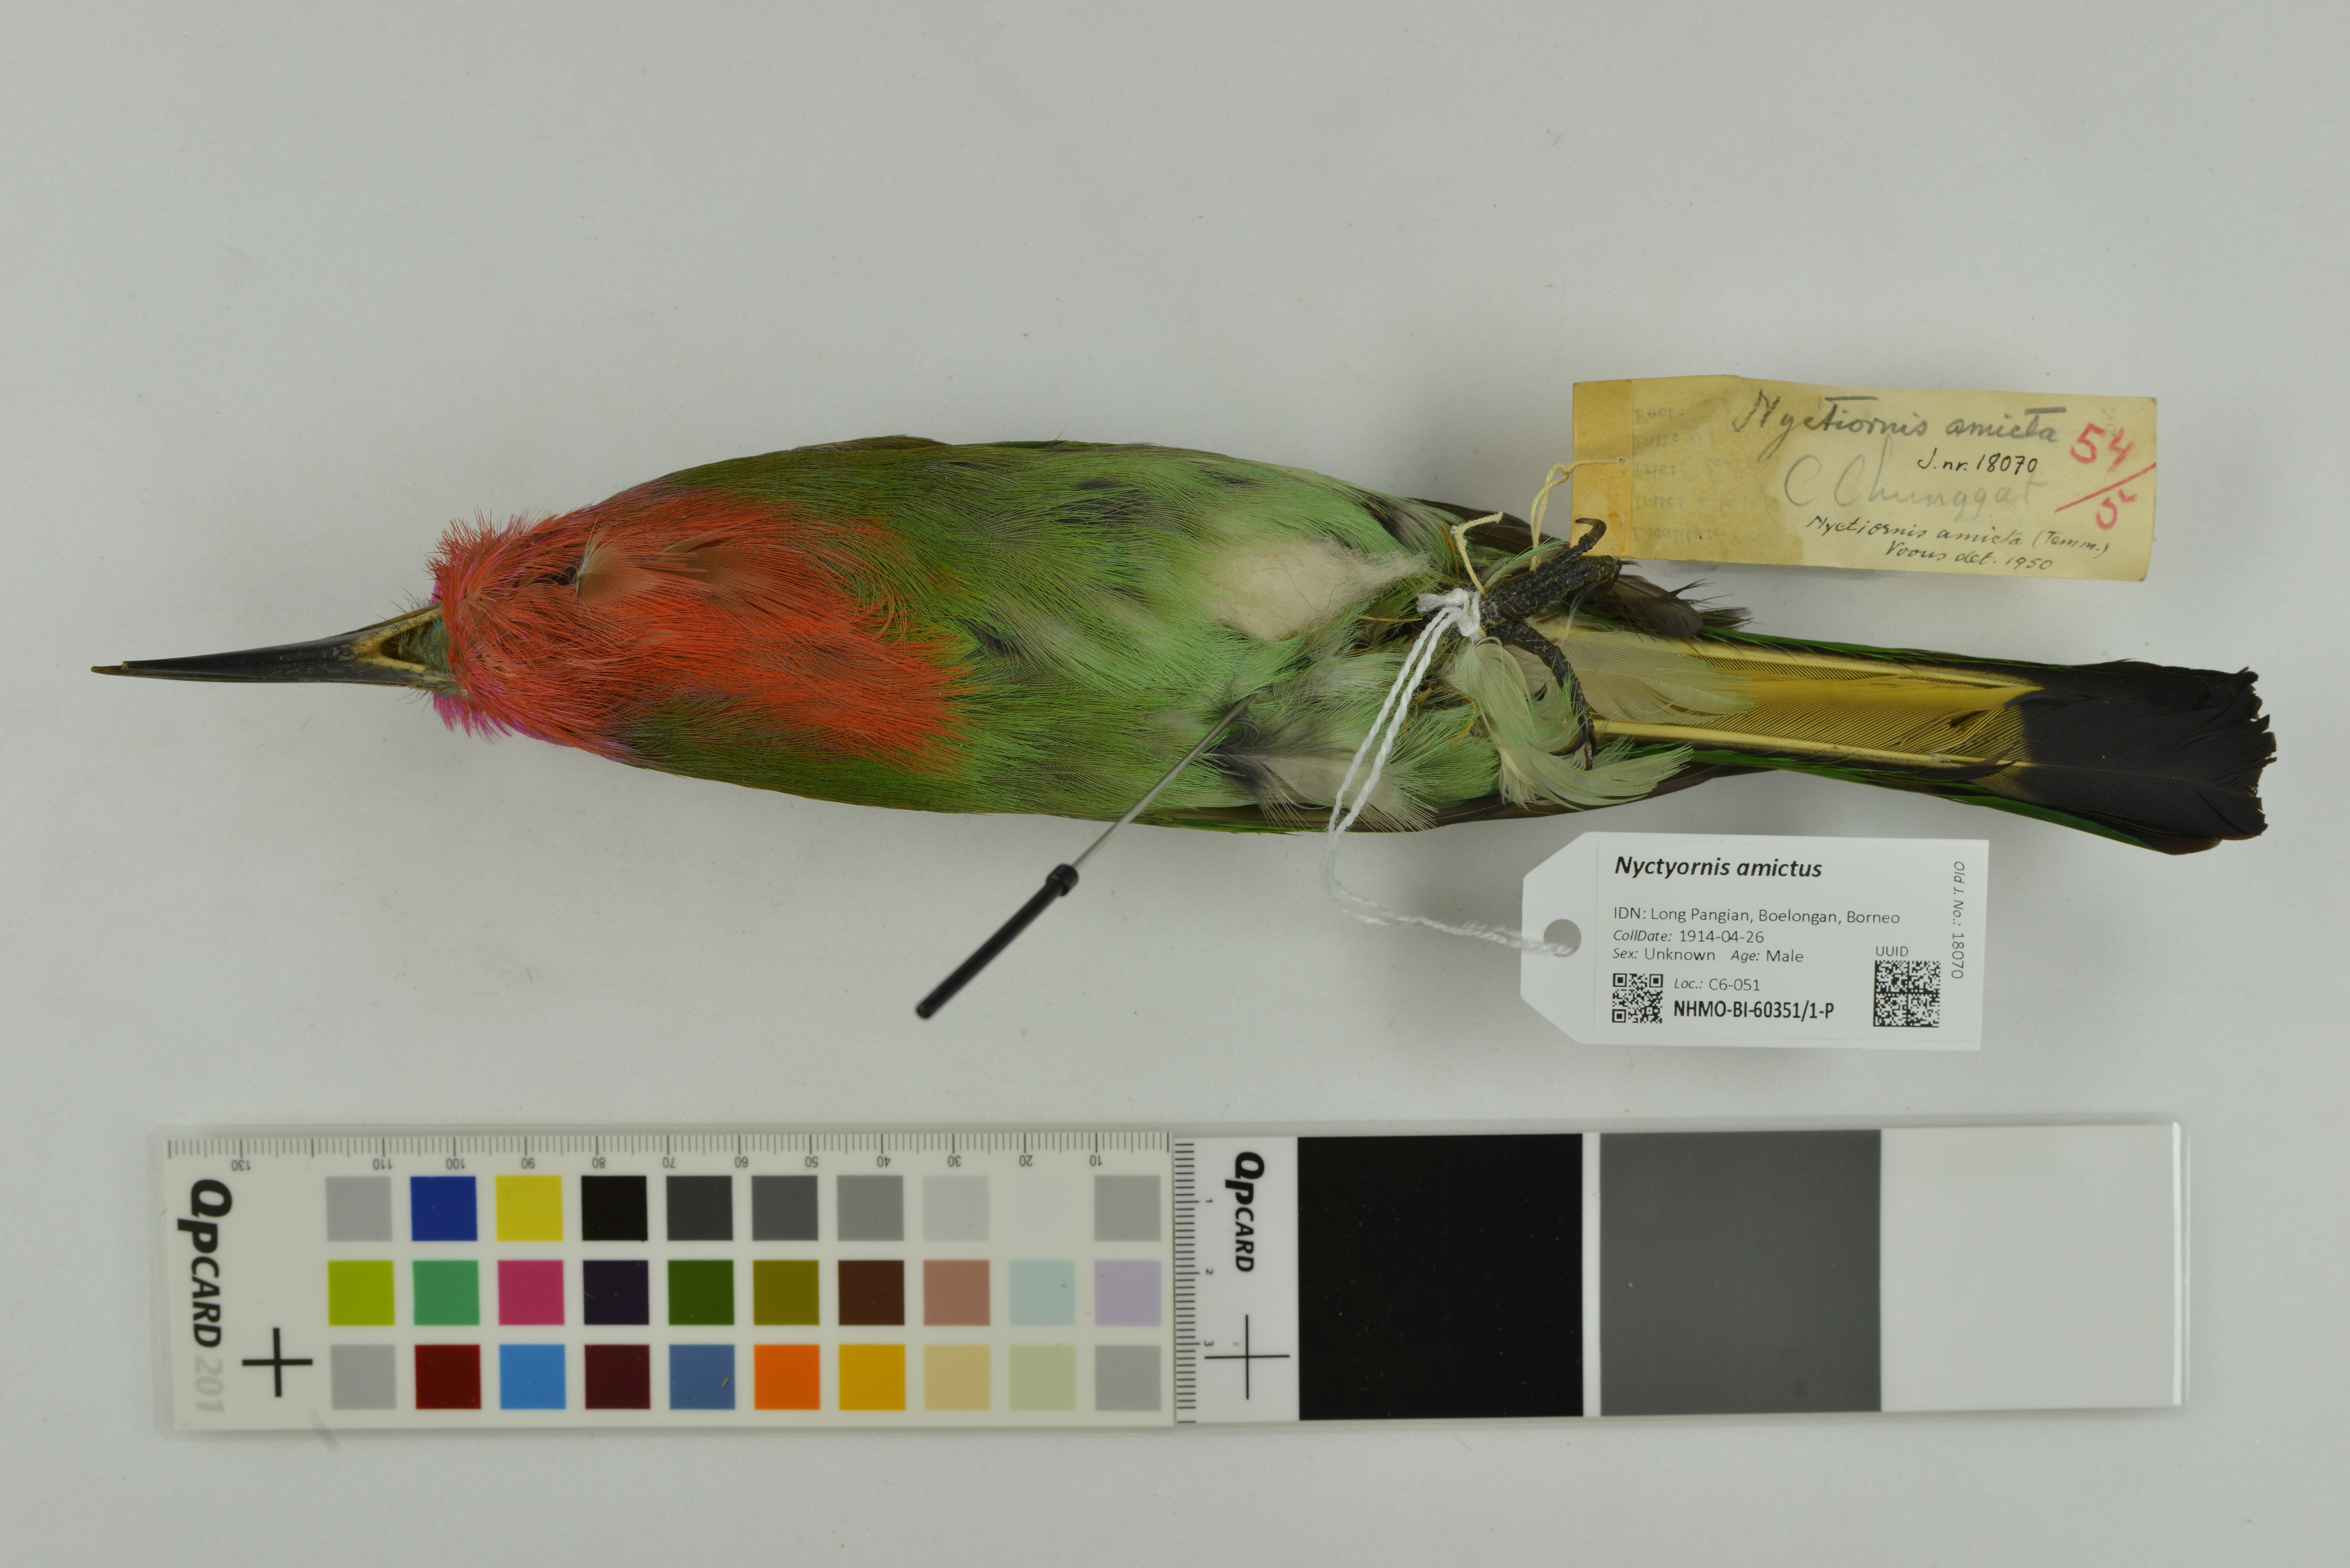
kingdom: Animalia
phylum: Chordata
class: Aves
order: Coraciiformes
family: Meropidae
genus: Nyctyornis
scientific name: Nyctyornis amictus
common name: Red-bearded bee-eater
